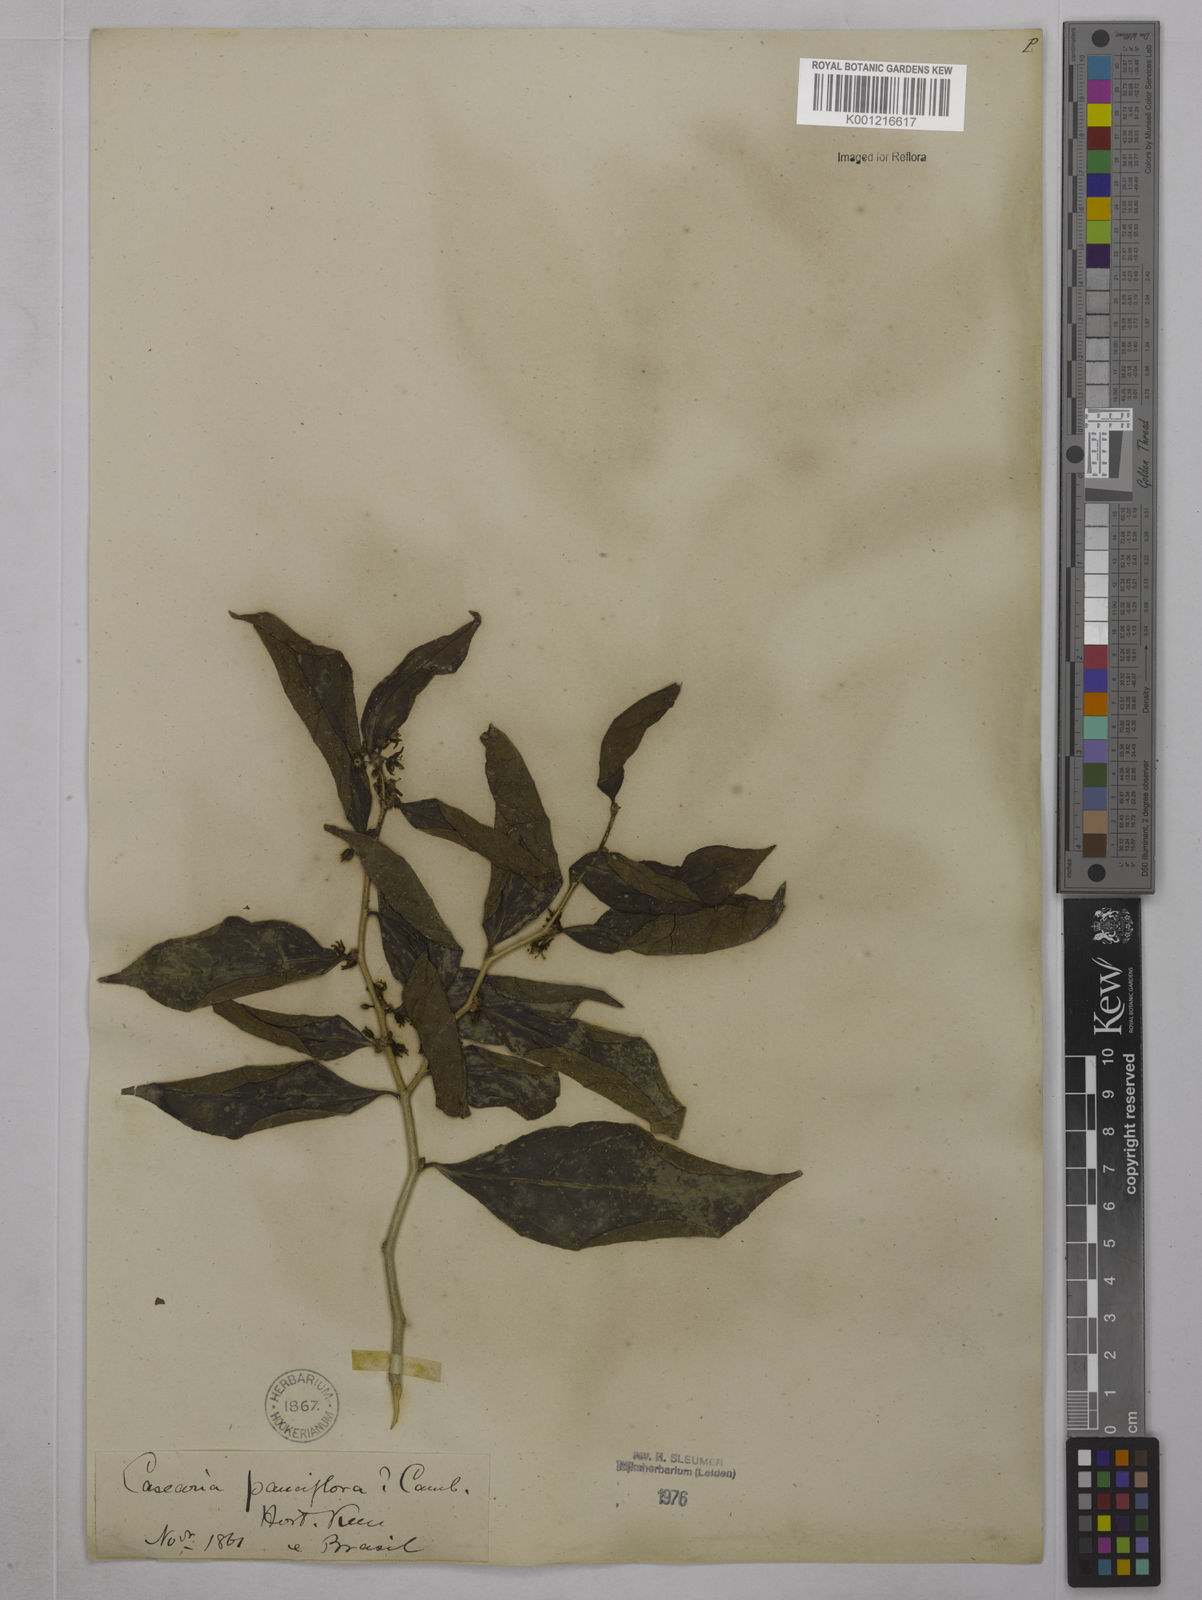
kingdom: Plantae
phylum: Tracheophyta
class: Magnoliopsida
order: Malpighiales
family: Salicaceae
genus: Casearia
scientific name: Casearia pauciflora
